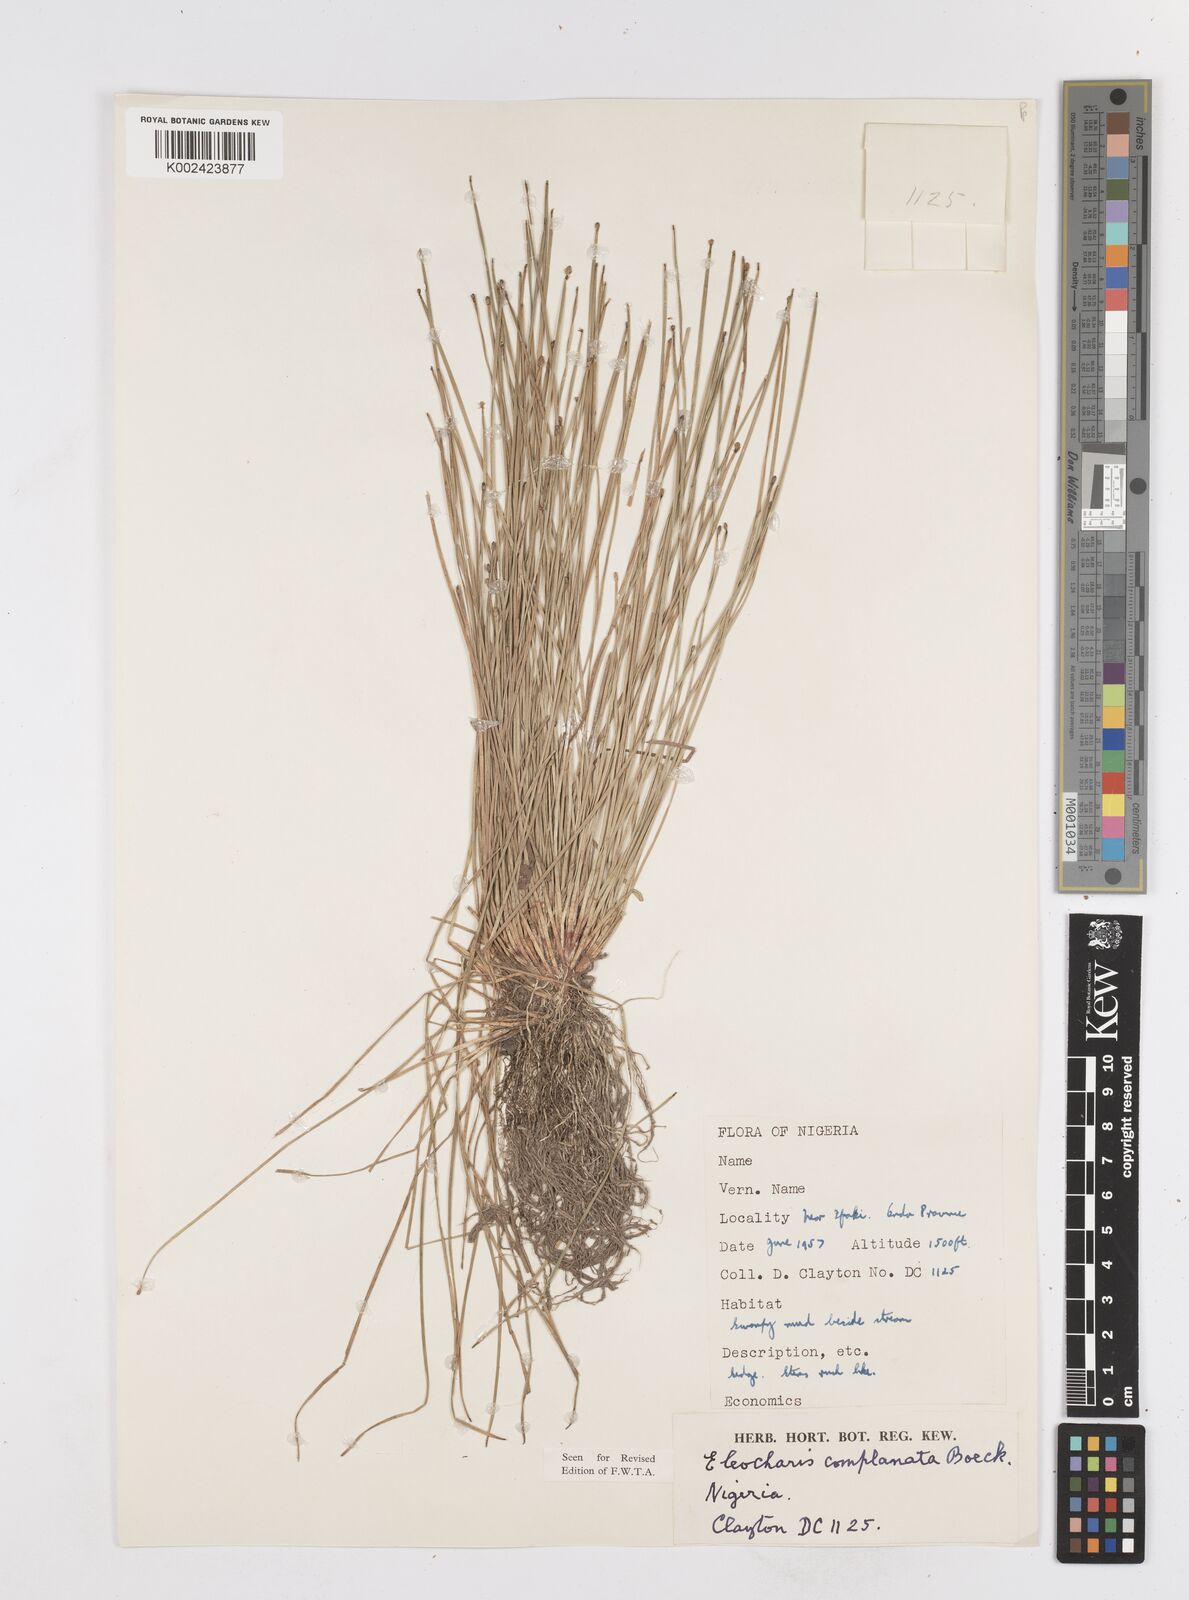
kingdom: Plantae
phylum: Tracheophyta
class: Liliopsida
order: Poales
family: Cyperaceae
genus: Eleocharis
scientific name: Eleocharis complanata
